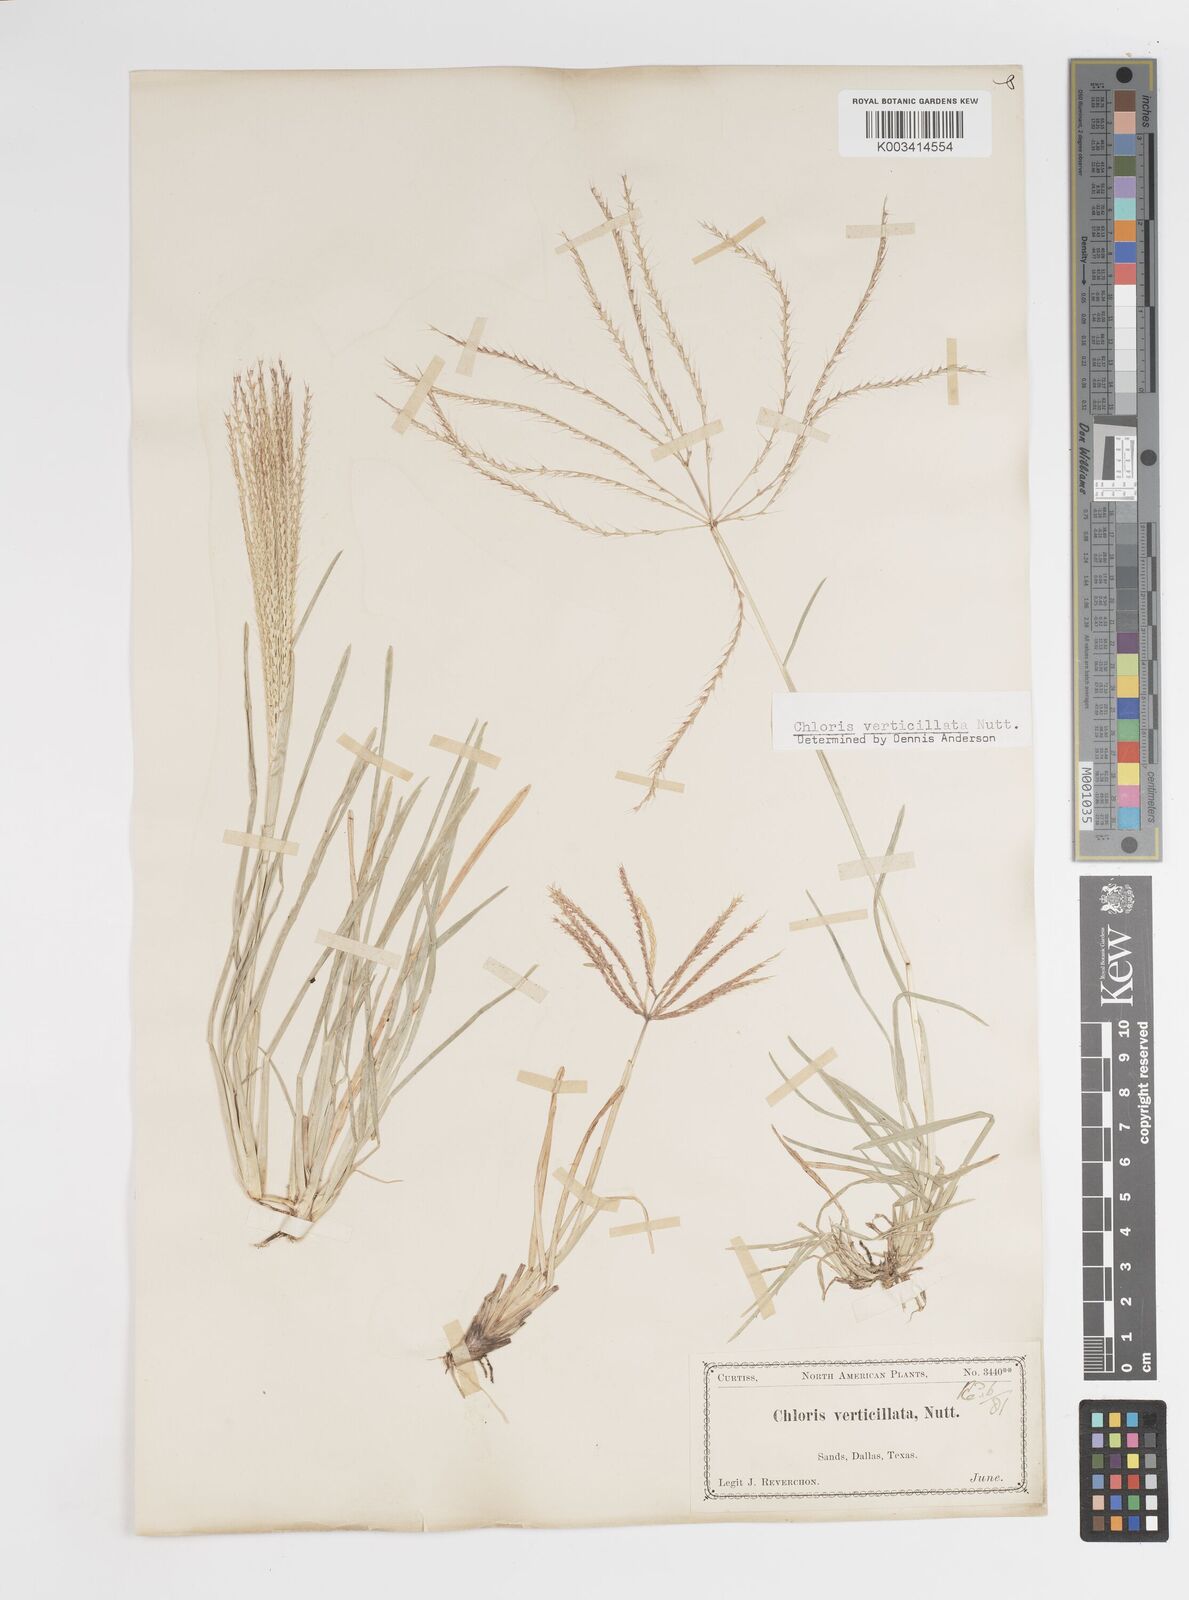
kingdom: Plantae
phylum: Tracheophyta
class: Liliopsida
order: Poales
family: Poaceae
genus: Chloris
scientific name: Chloris verticillata
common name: Tumble windmill grass
